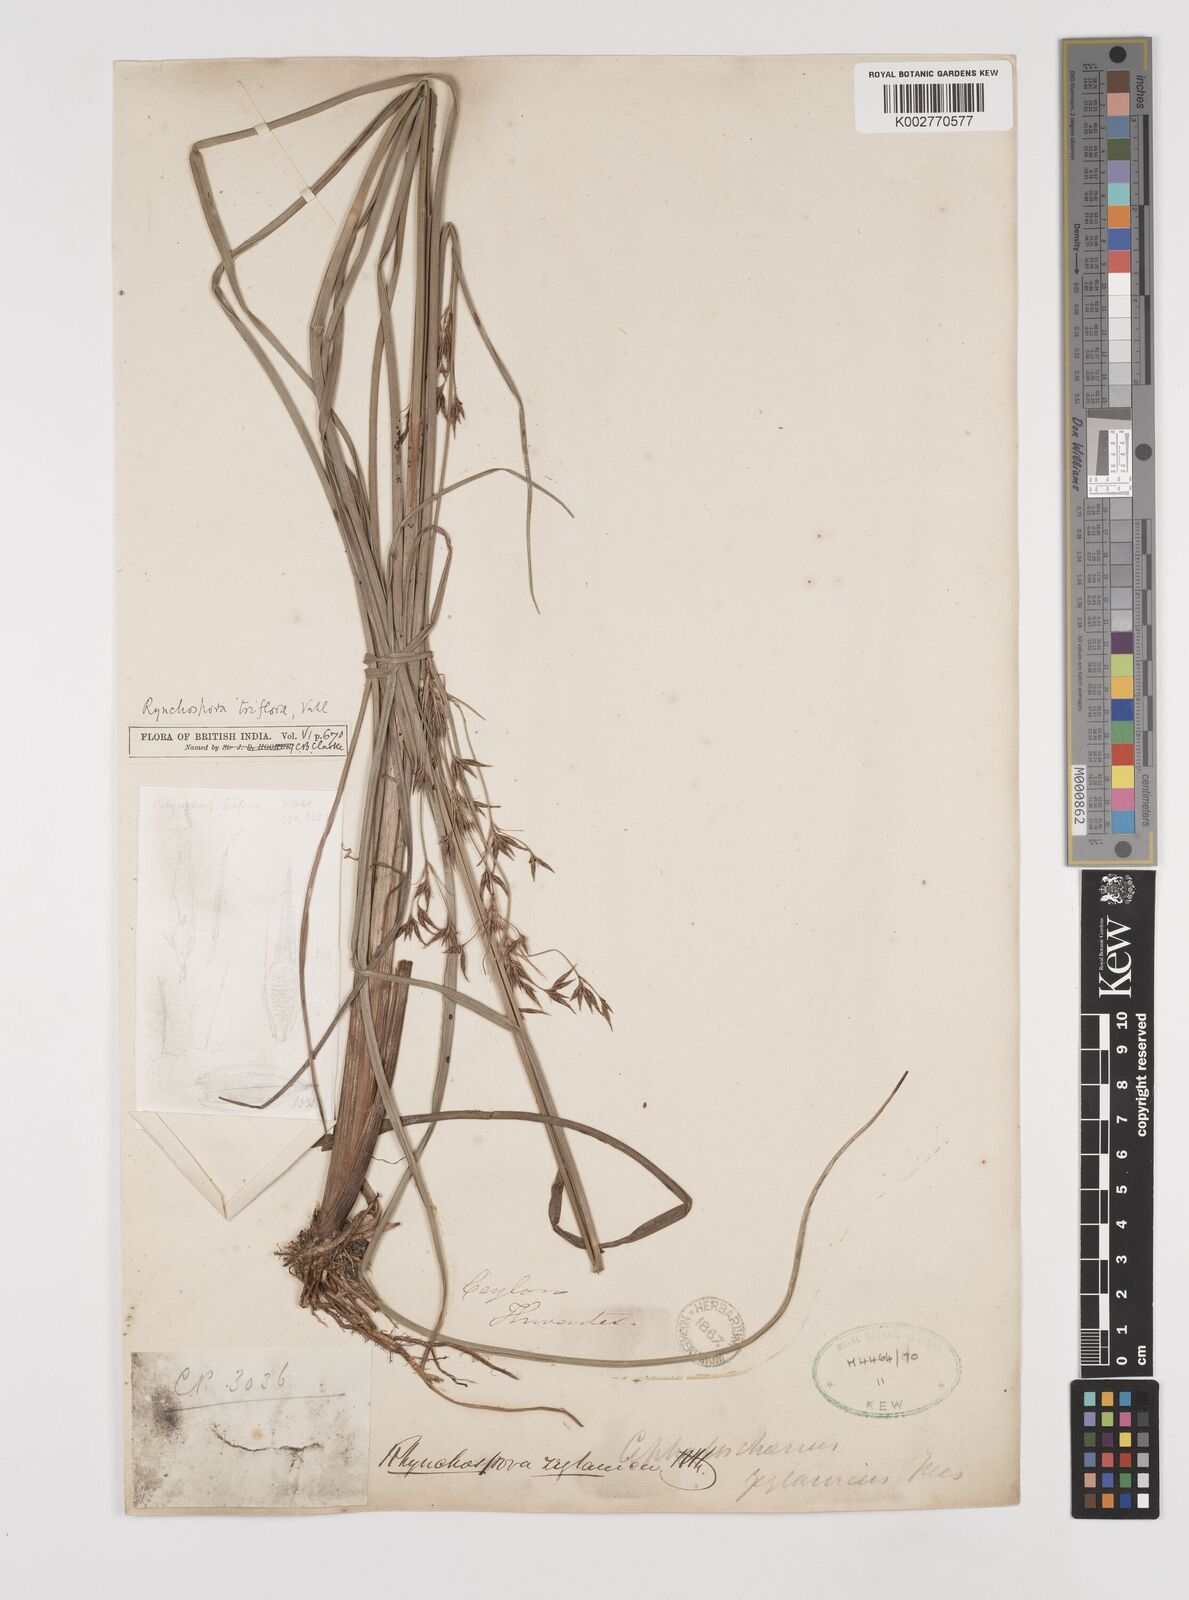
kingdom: Plantae
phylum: Tracheophyta
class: Liliopsida
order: Poales
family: Cyperaceae
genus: Rhynchospora
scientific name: Rhynchospora triflora
